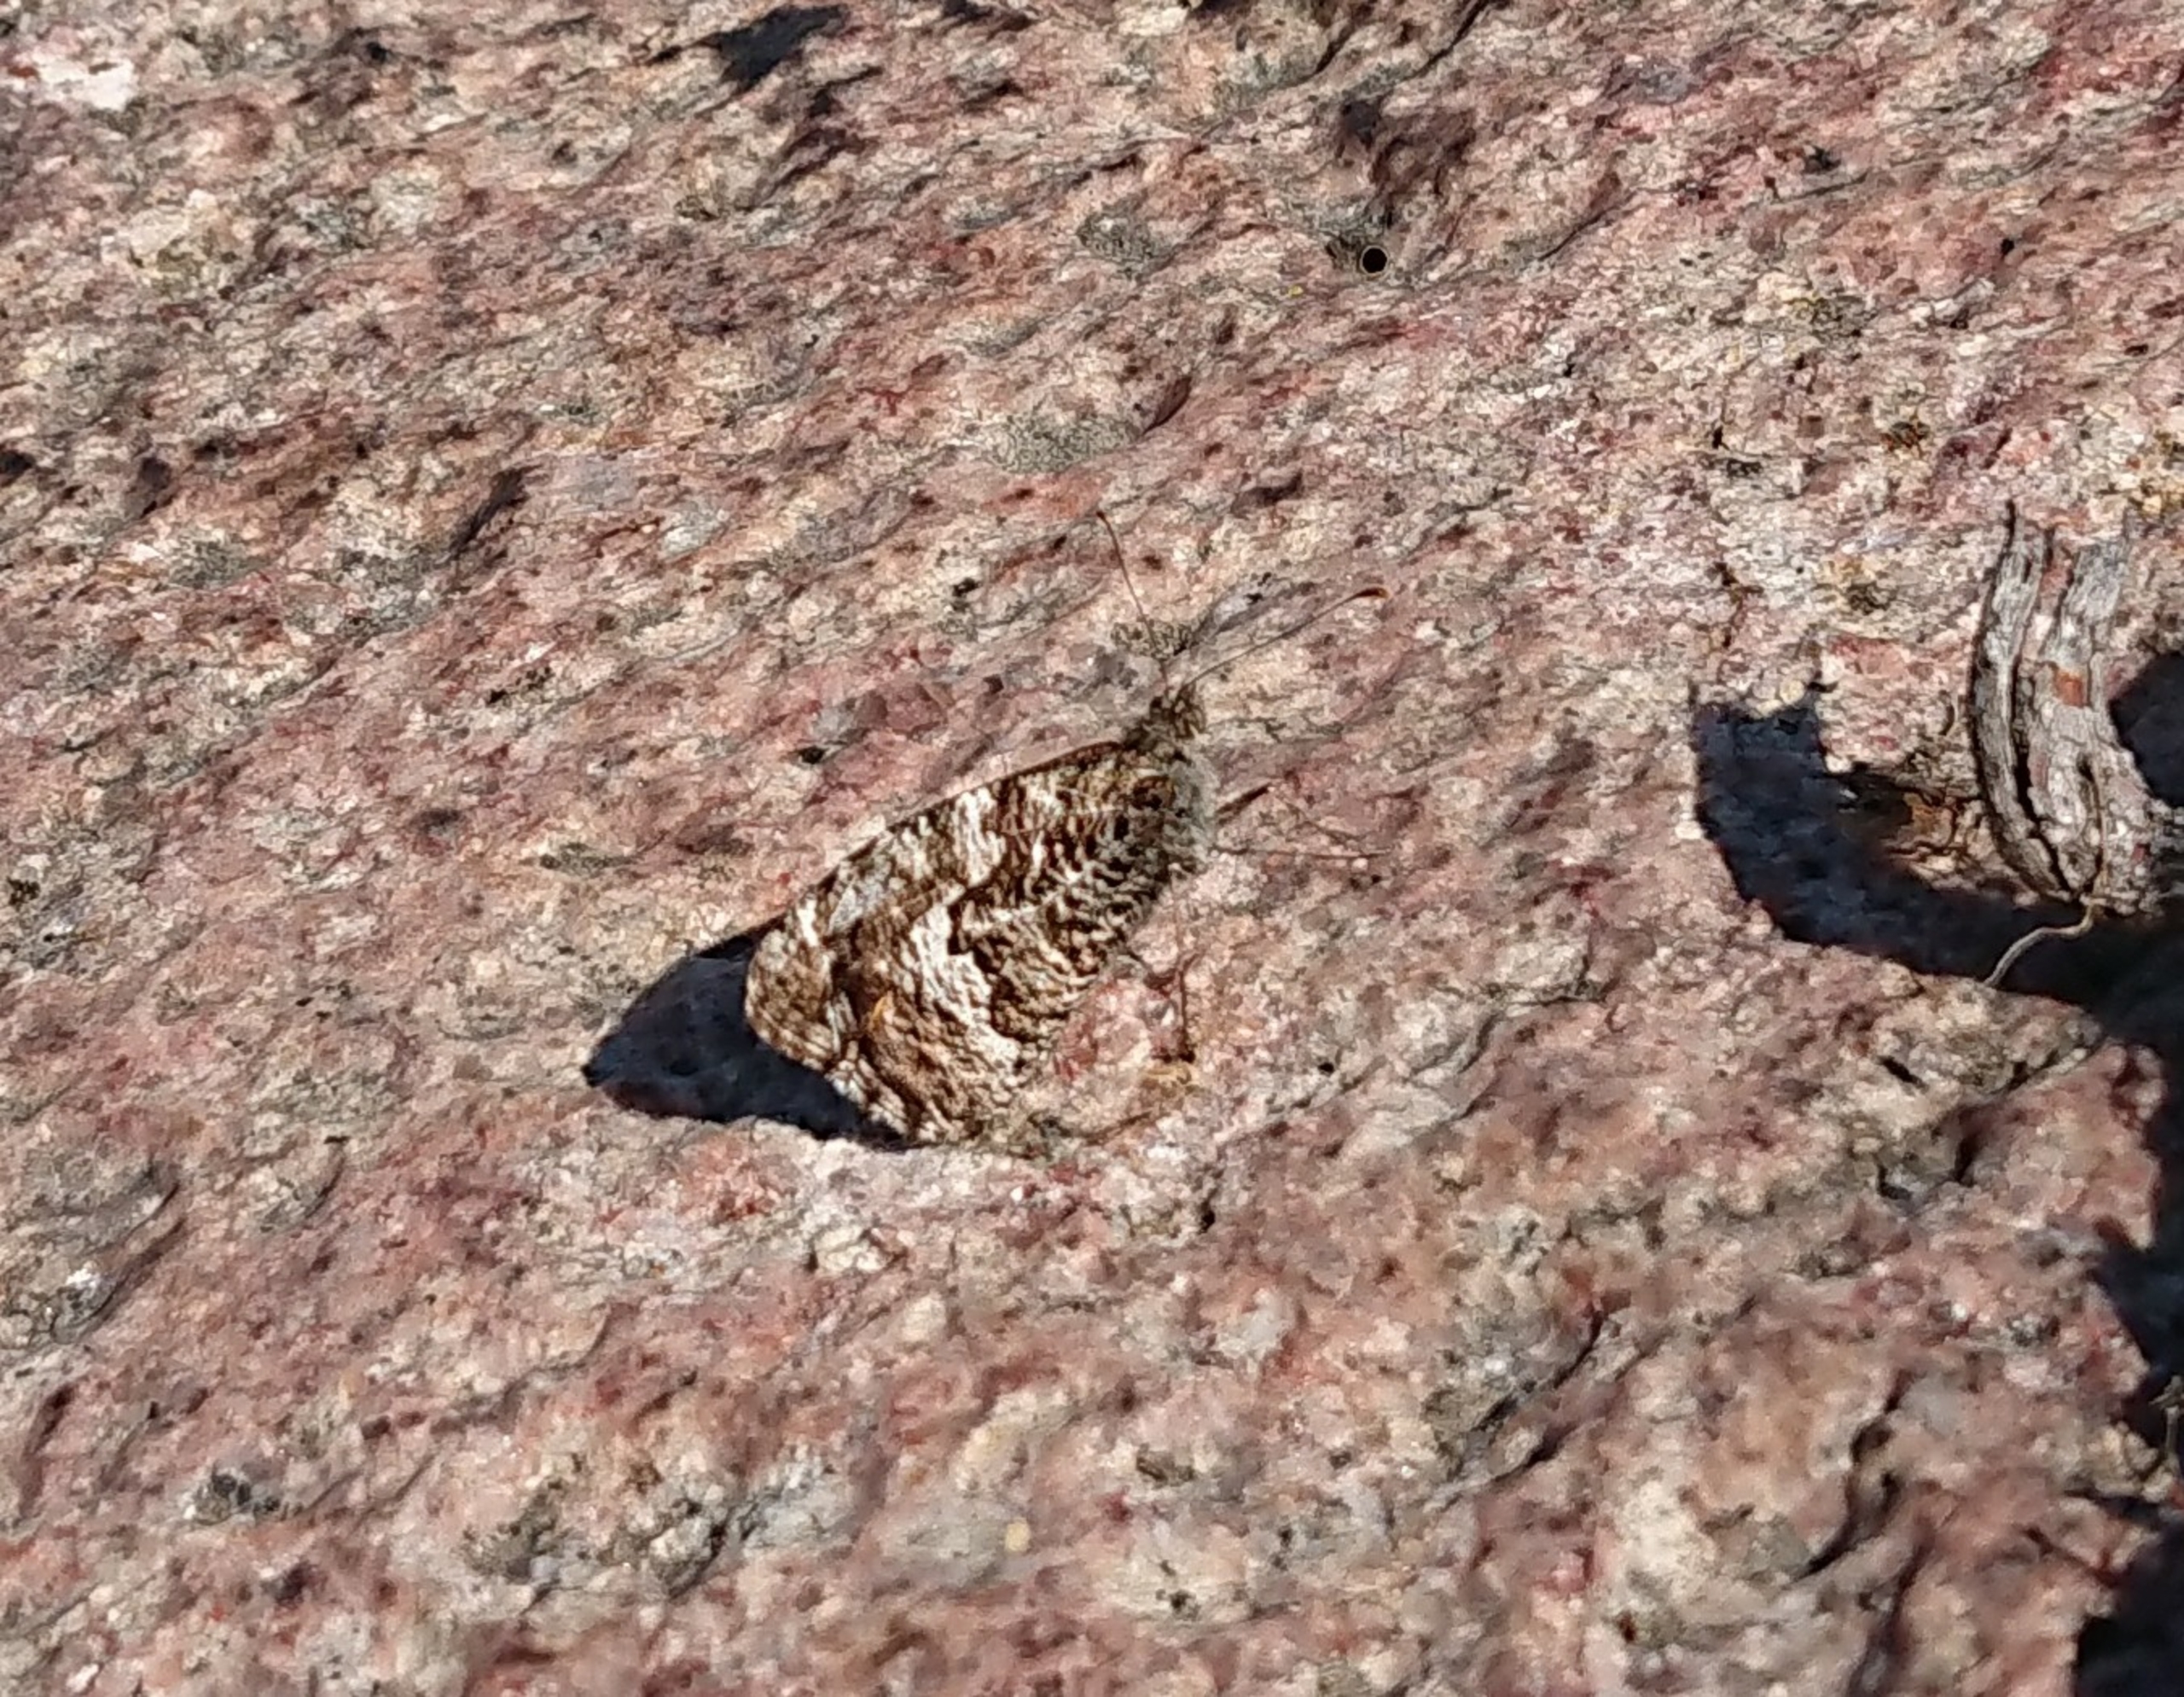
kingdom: Animalia
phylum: Arthropoda
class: Insecta
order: Lepidoptera
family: Nymphalidae
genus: Hipparchia
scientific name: Hipparchia semele
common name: Sandrandøje
